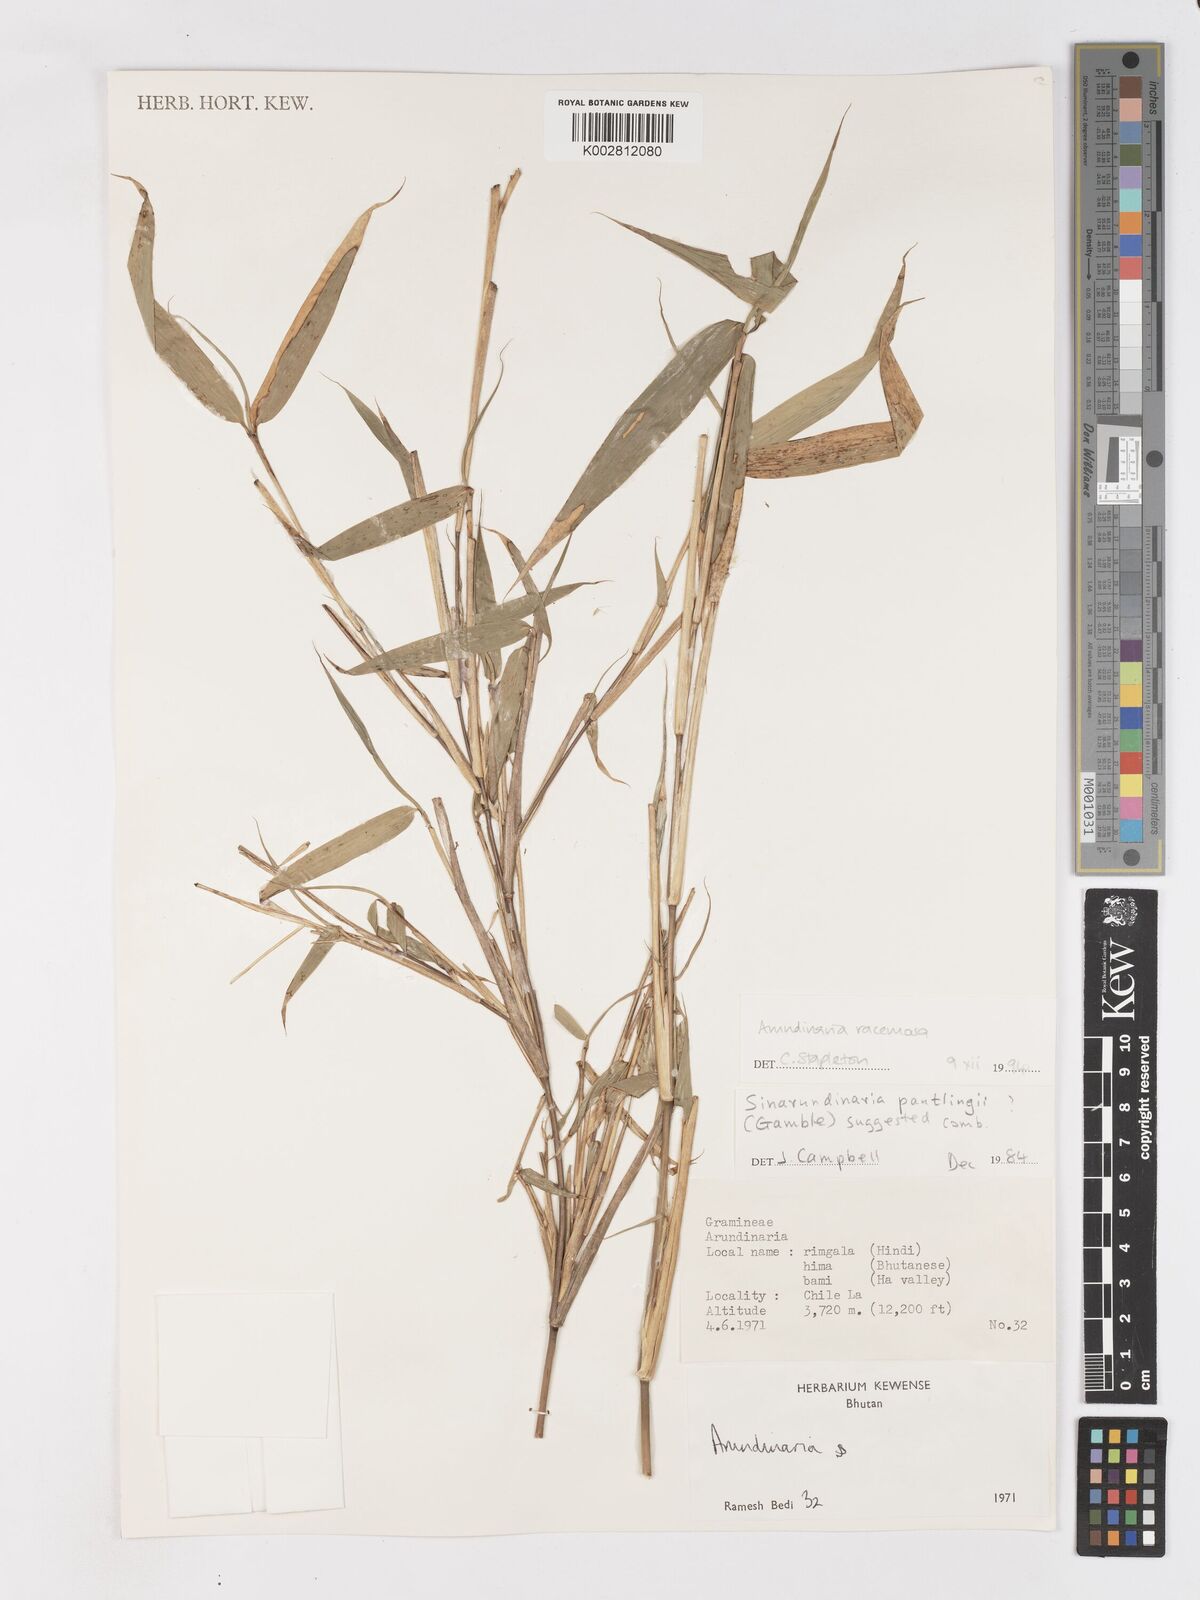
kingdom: Plantae
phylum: Tracheophyta
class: Liliopsida
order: Poales
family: Poaceae
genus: Sarocalamus
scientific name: Sarocalamus racemosus
